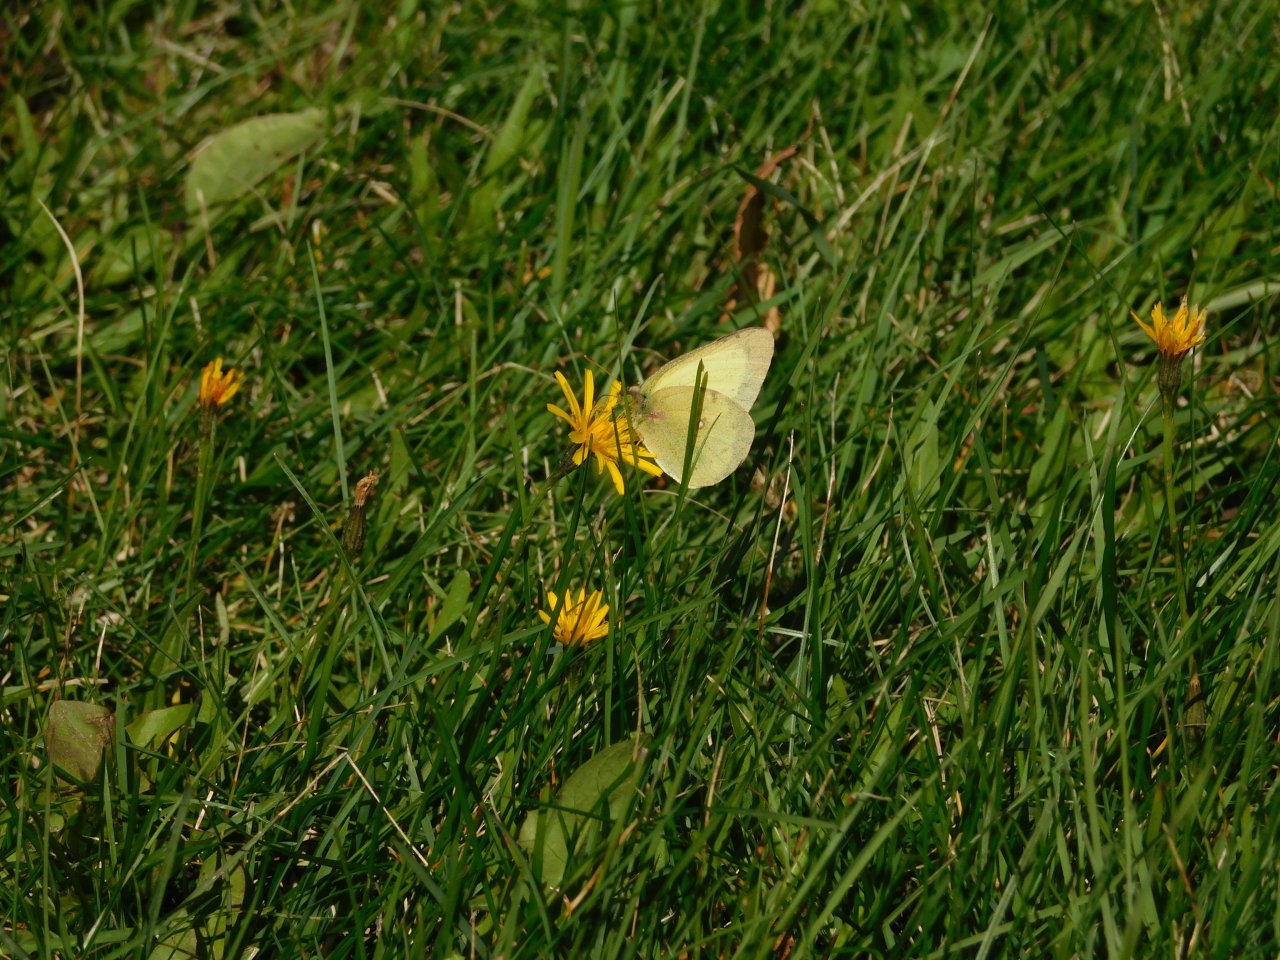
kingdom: Animalia
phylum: Arthropoda
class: Insecta
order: Lepidoptera
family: Pieridae
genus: Colias
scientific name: Colias philodice
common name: Clouded Sulphur
